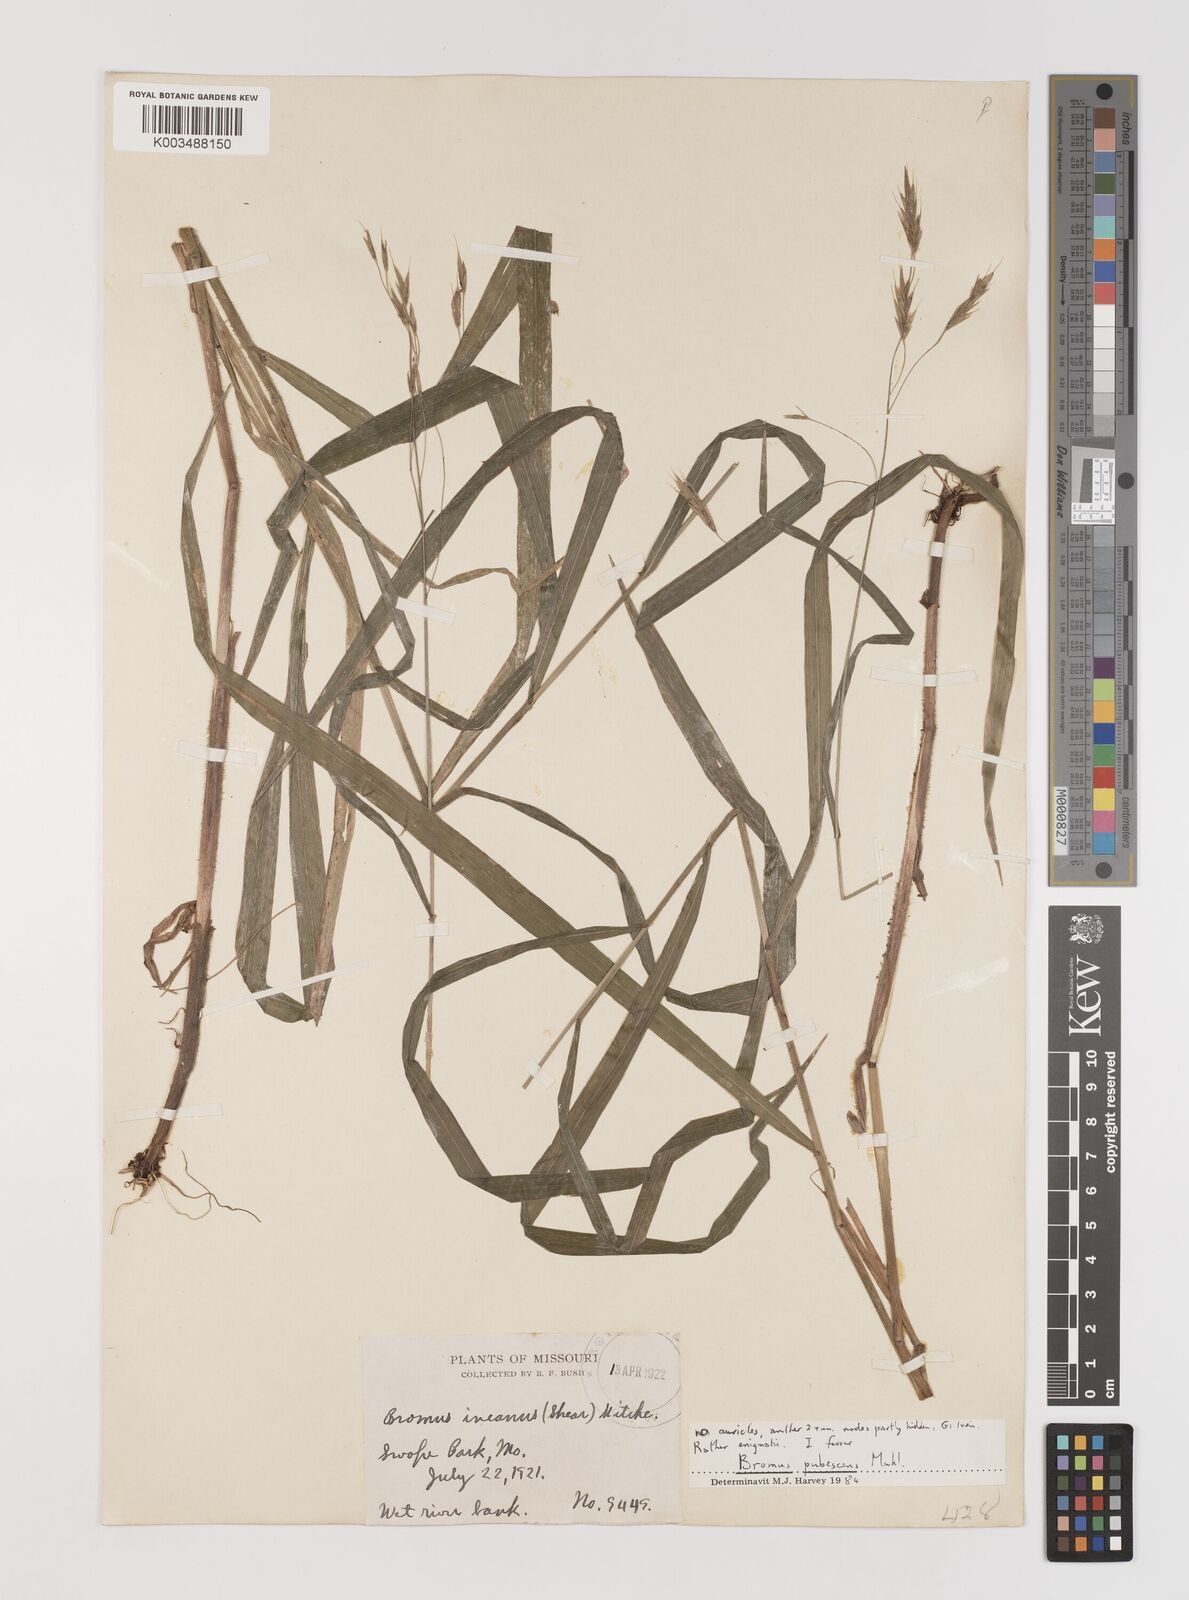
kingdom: Plantae
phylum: Tracheophyta
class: Liliopsida
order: Poales
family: Poaceae
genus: Bromus
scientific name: Bromus latiglumis
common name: Broad-glumed brome
